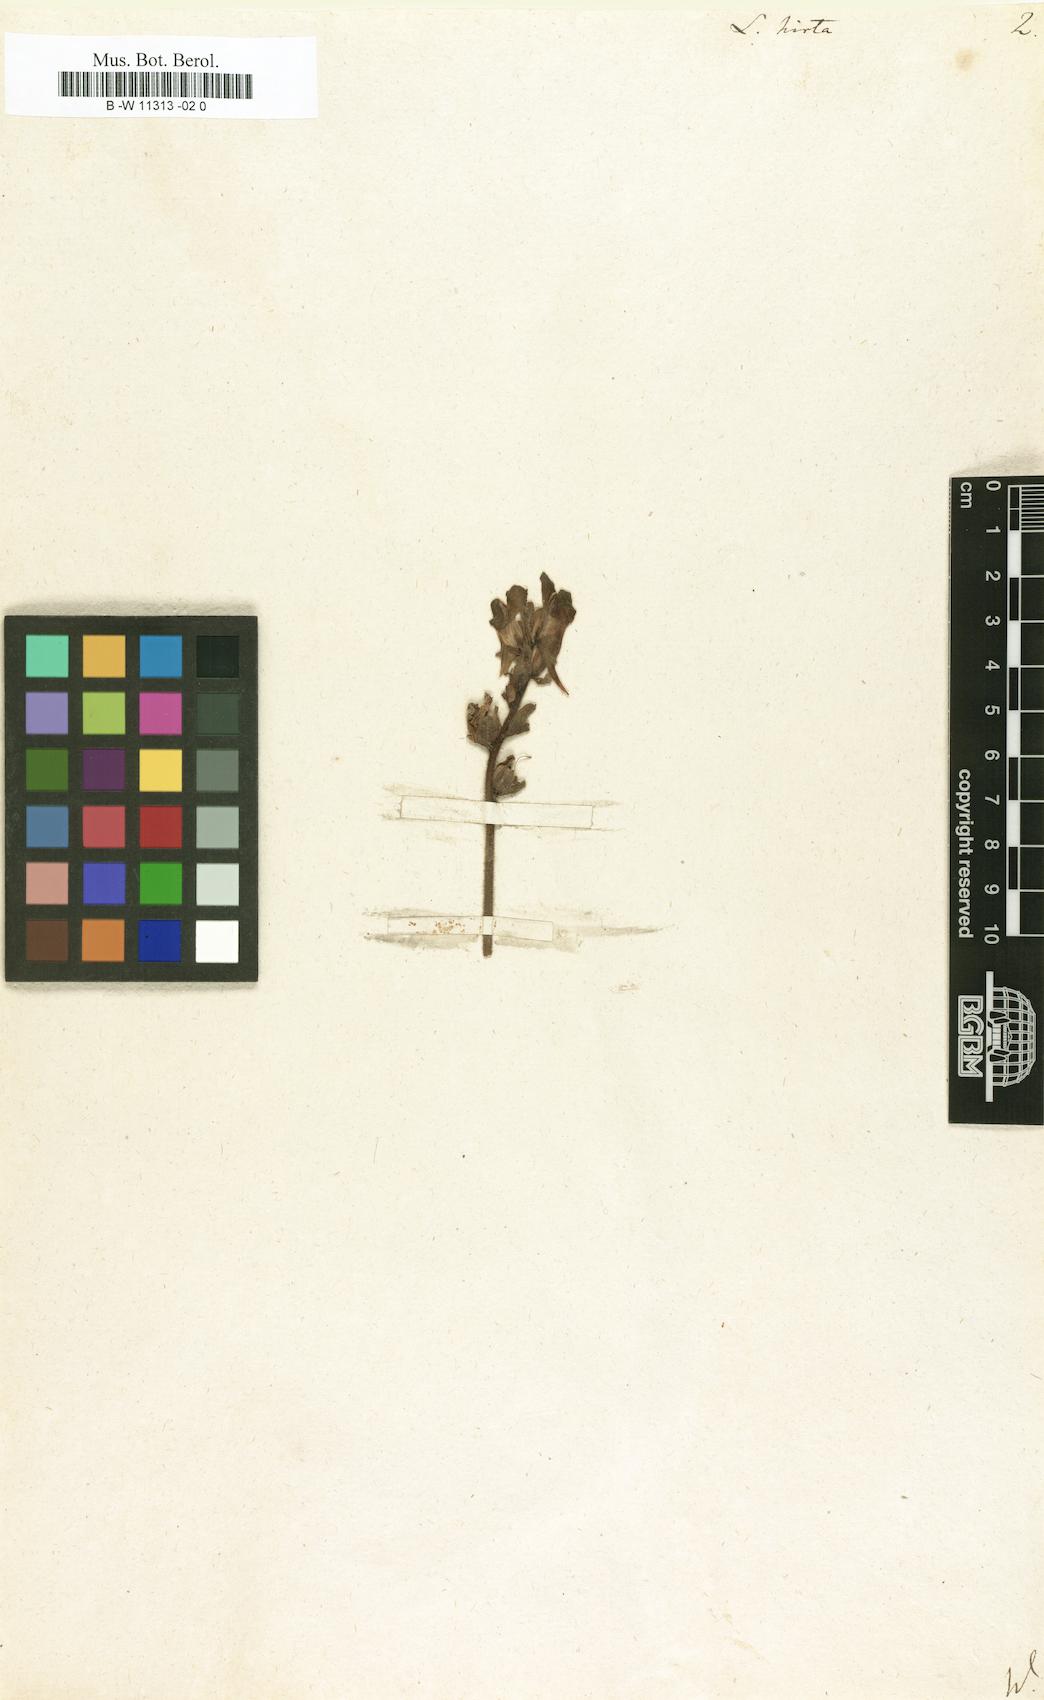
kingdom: Plantae
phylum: Tracheophyta
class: Magnoliopsida
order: Lamiales
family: Plantaginaceae
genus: Linaria
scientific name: Linaria hirta
